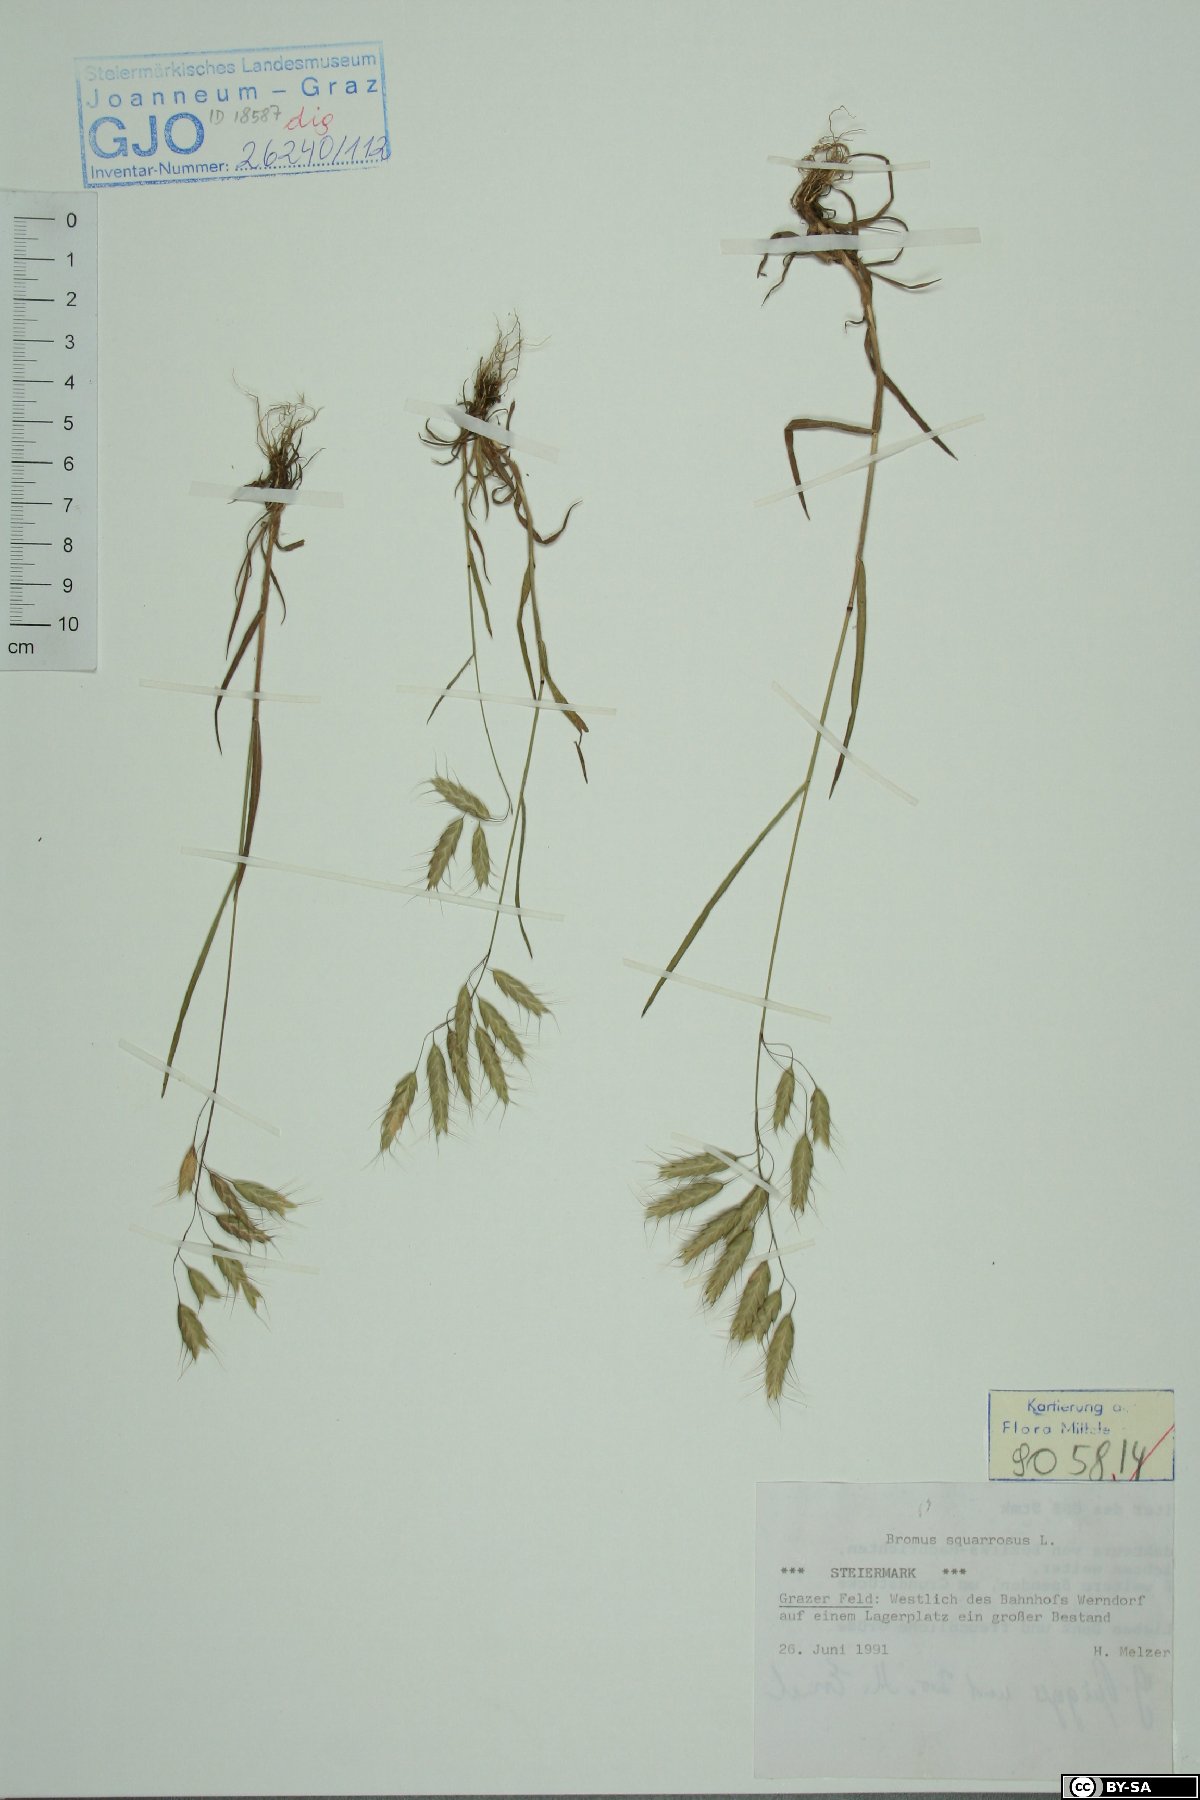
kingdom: Plantae
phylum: Tracheophyta
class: Liliopsida
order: Poales
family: Poaceae
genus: Bromus
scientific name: Bromus squarrosus
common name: Corn brome
